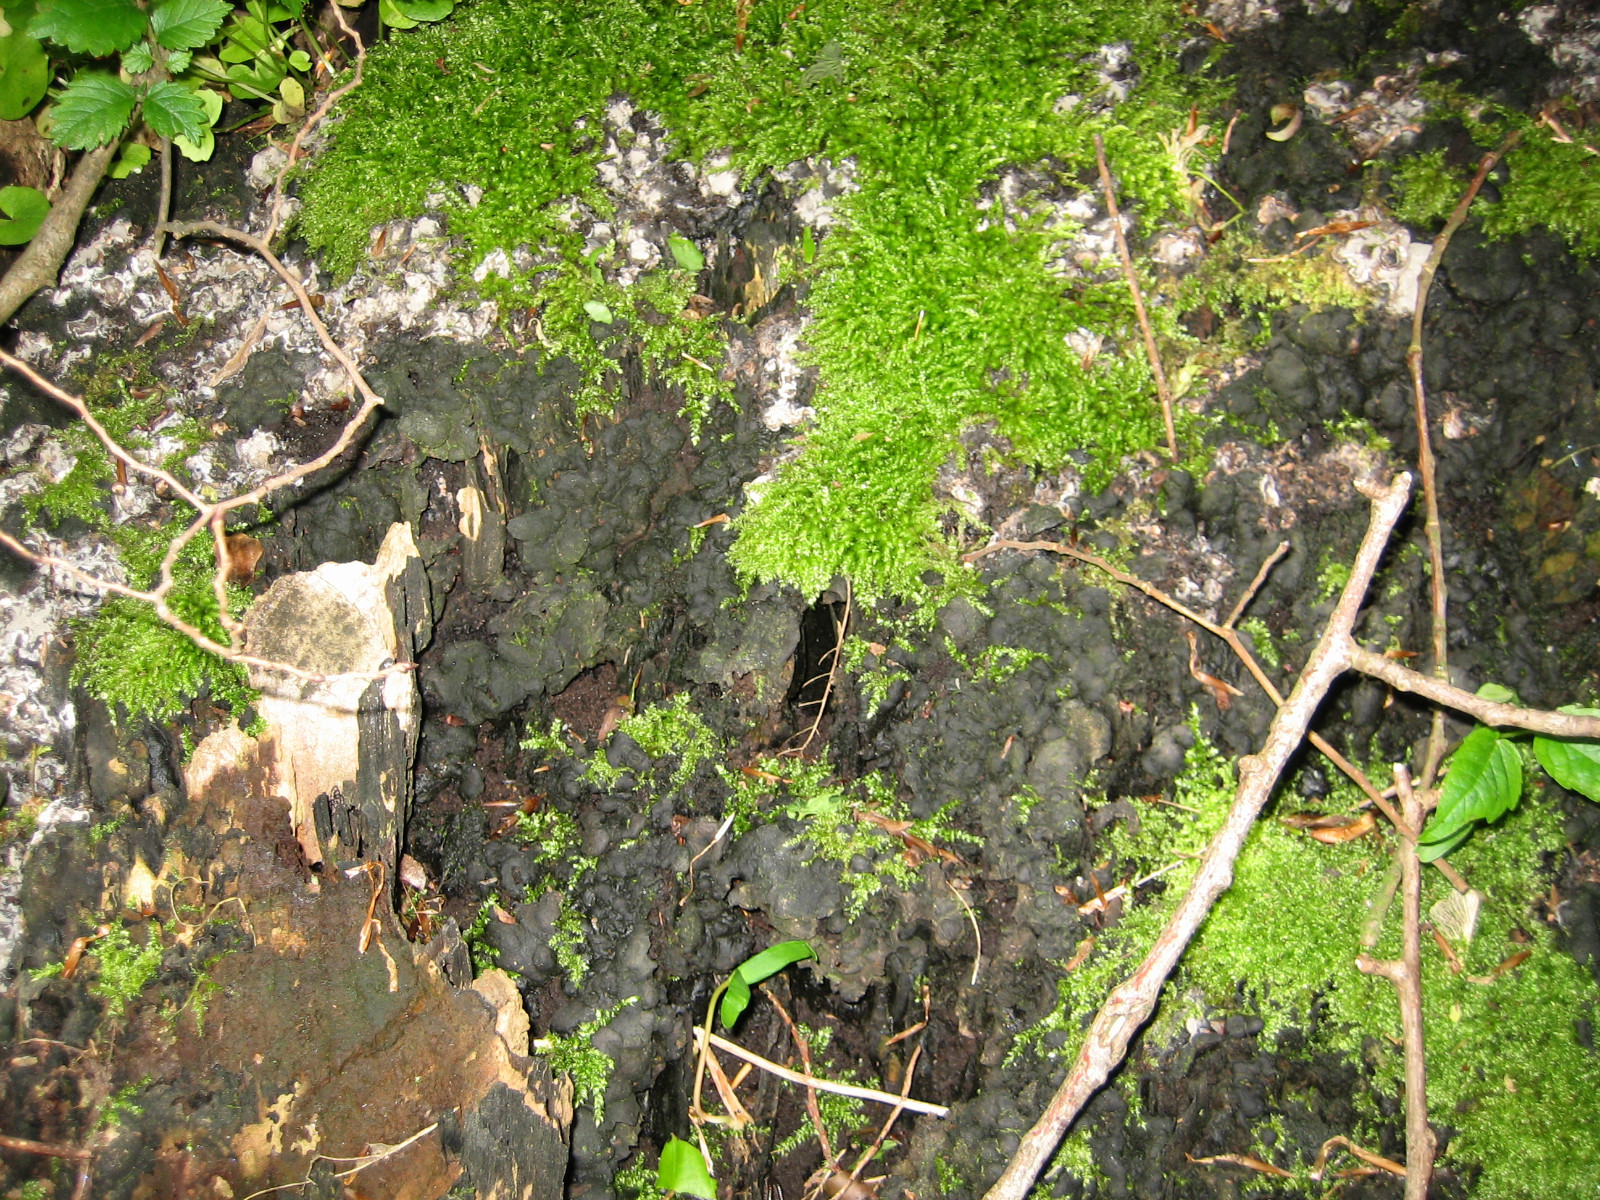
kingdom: Fungi
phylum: Ascomycota
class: Sordariomycetes
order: Xylariales
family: Xylariaceae
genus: Kretzschmaria
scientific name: Kretzschmaria deusta
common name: stor kulsvamp
